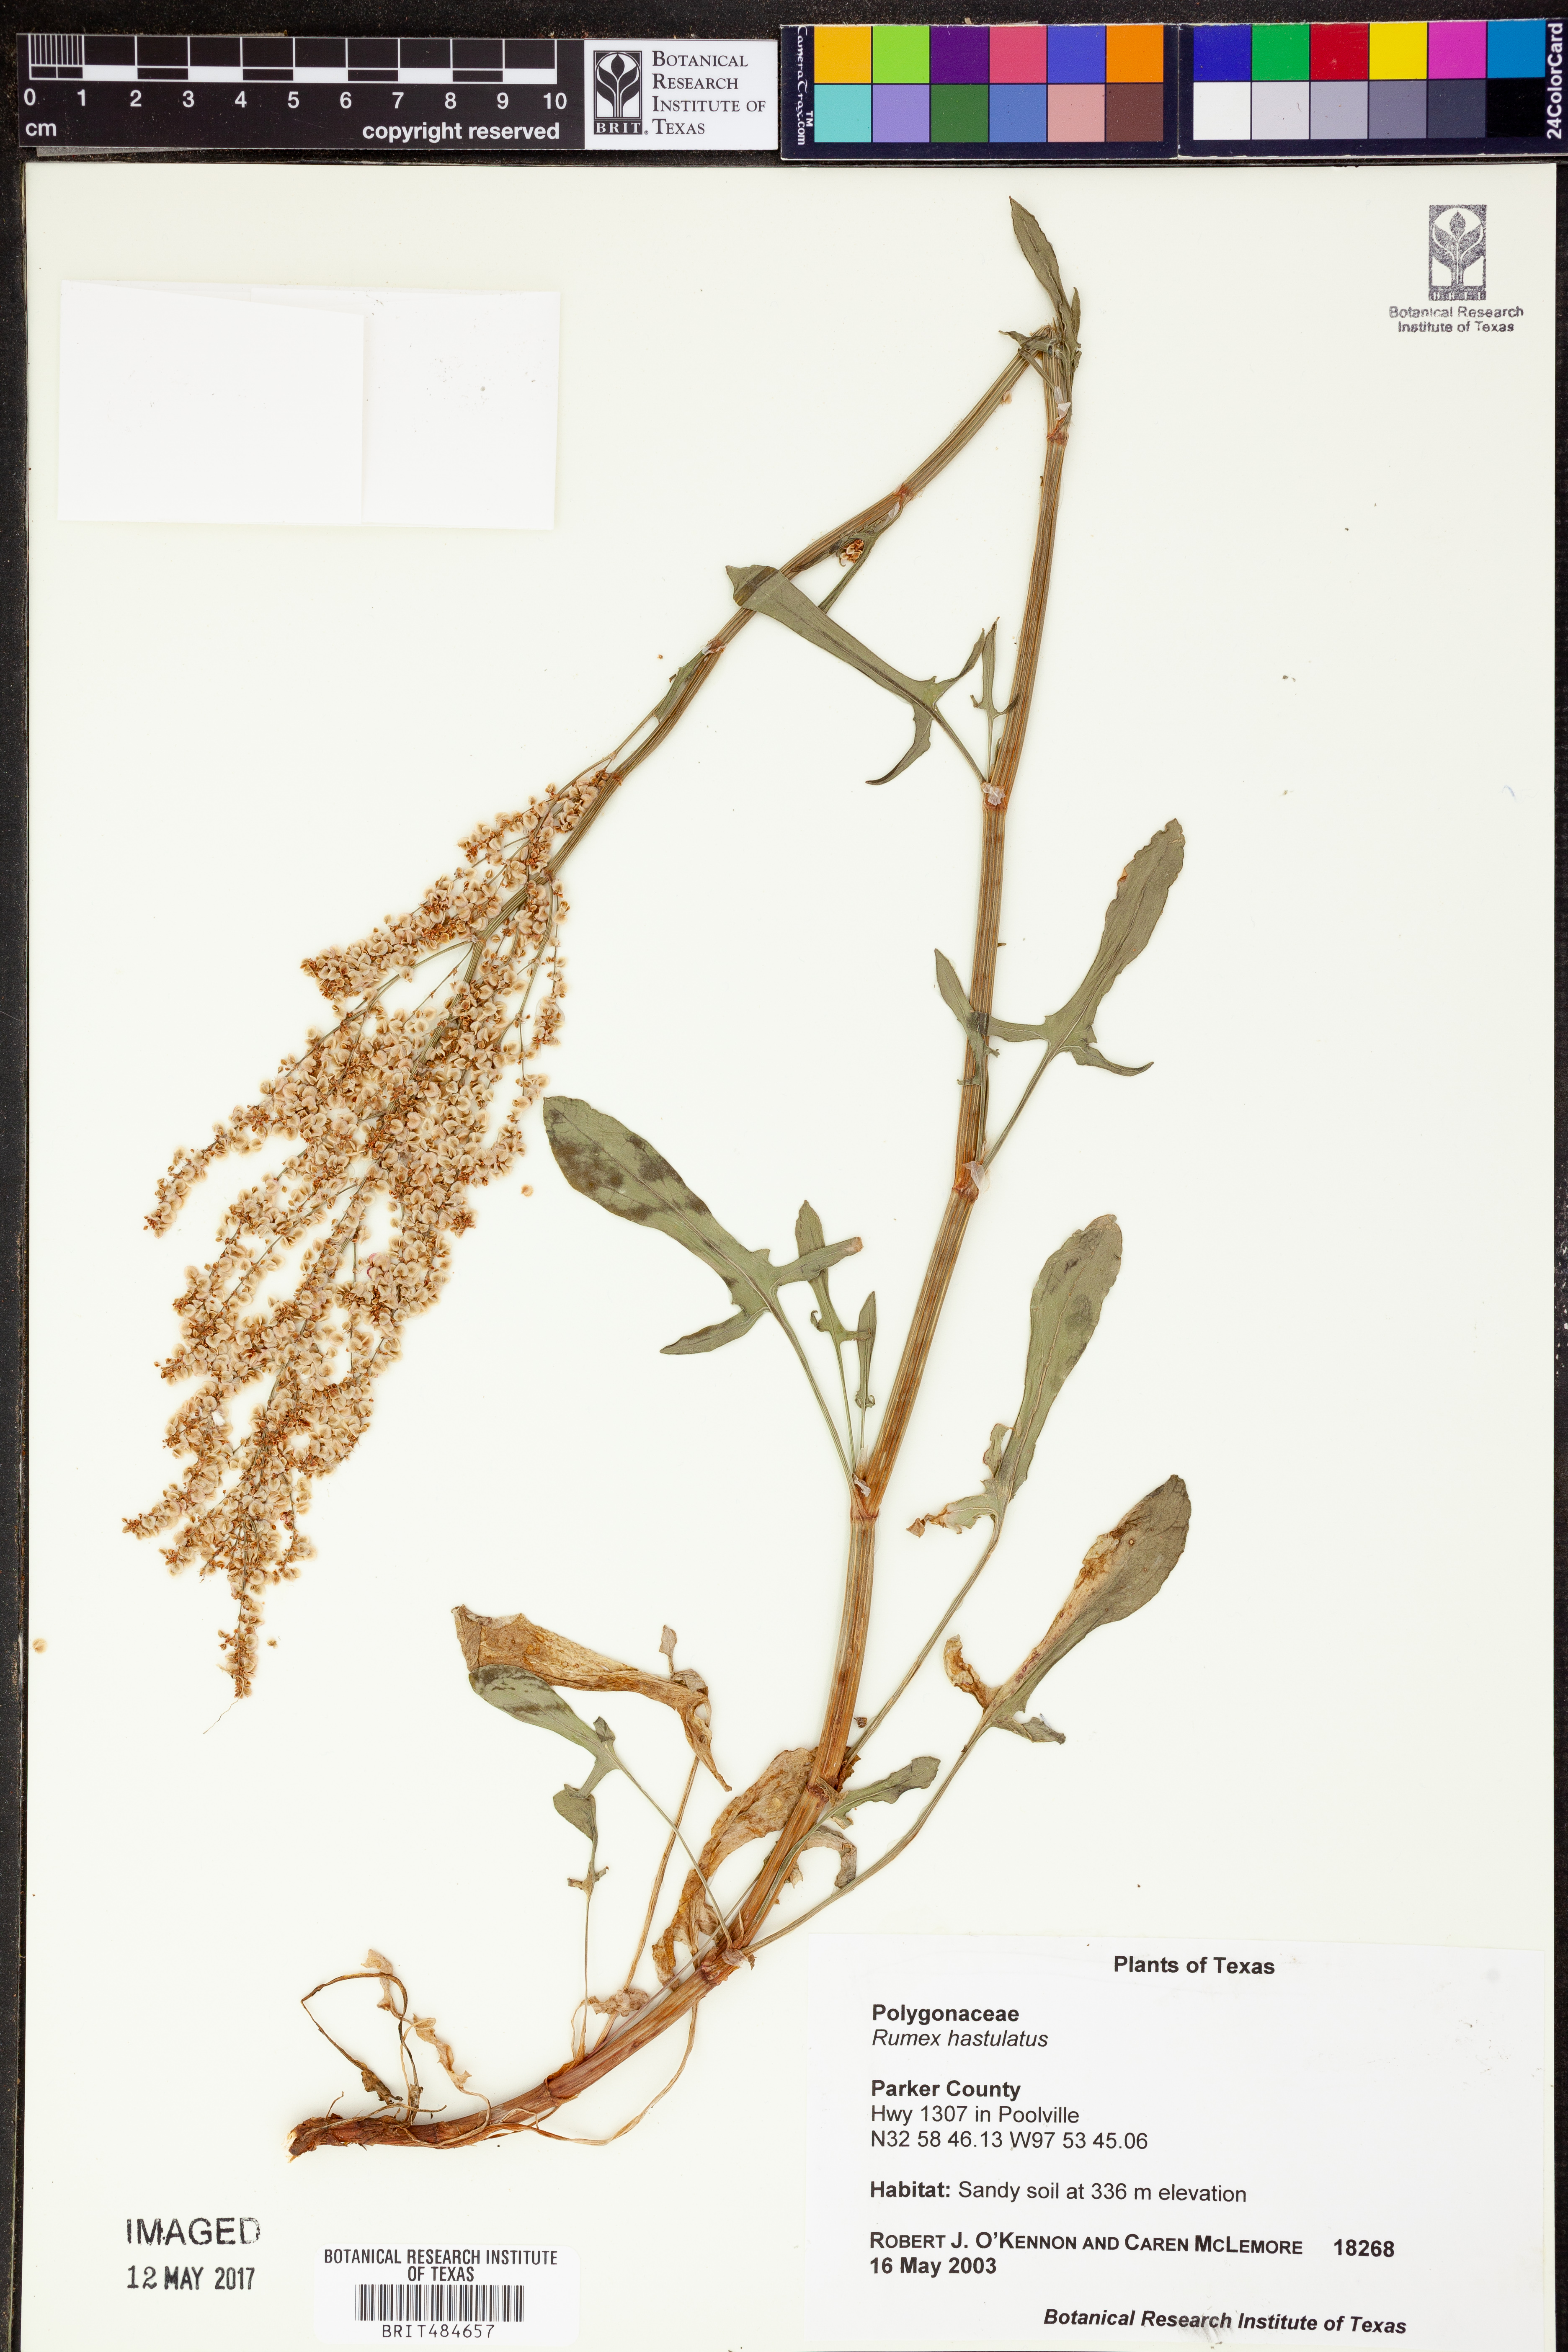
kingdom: Plantae
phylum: Tracheophyta
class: Magnoliopsida
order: Caryophyllales
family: Polygonaceae
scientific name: Polygonaceae
